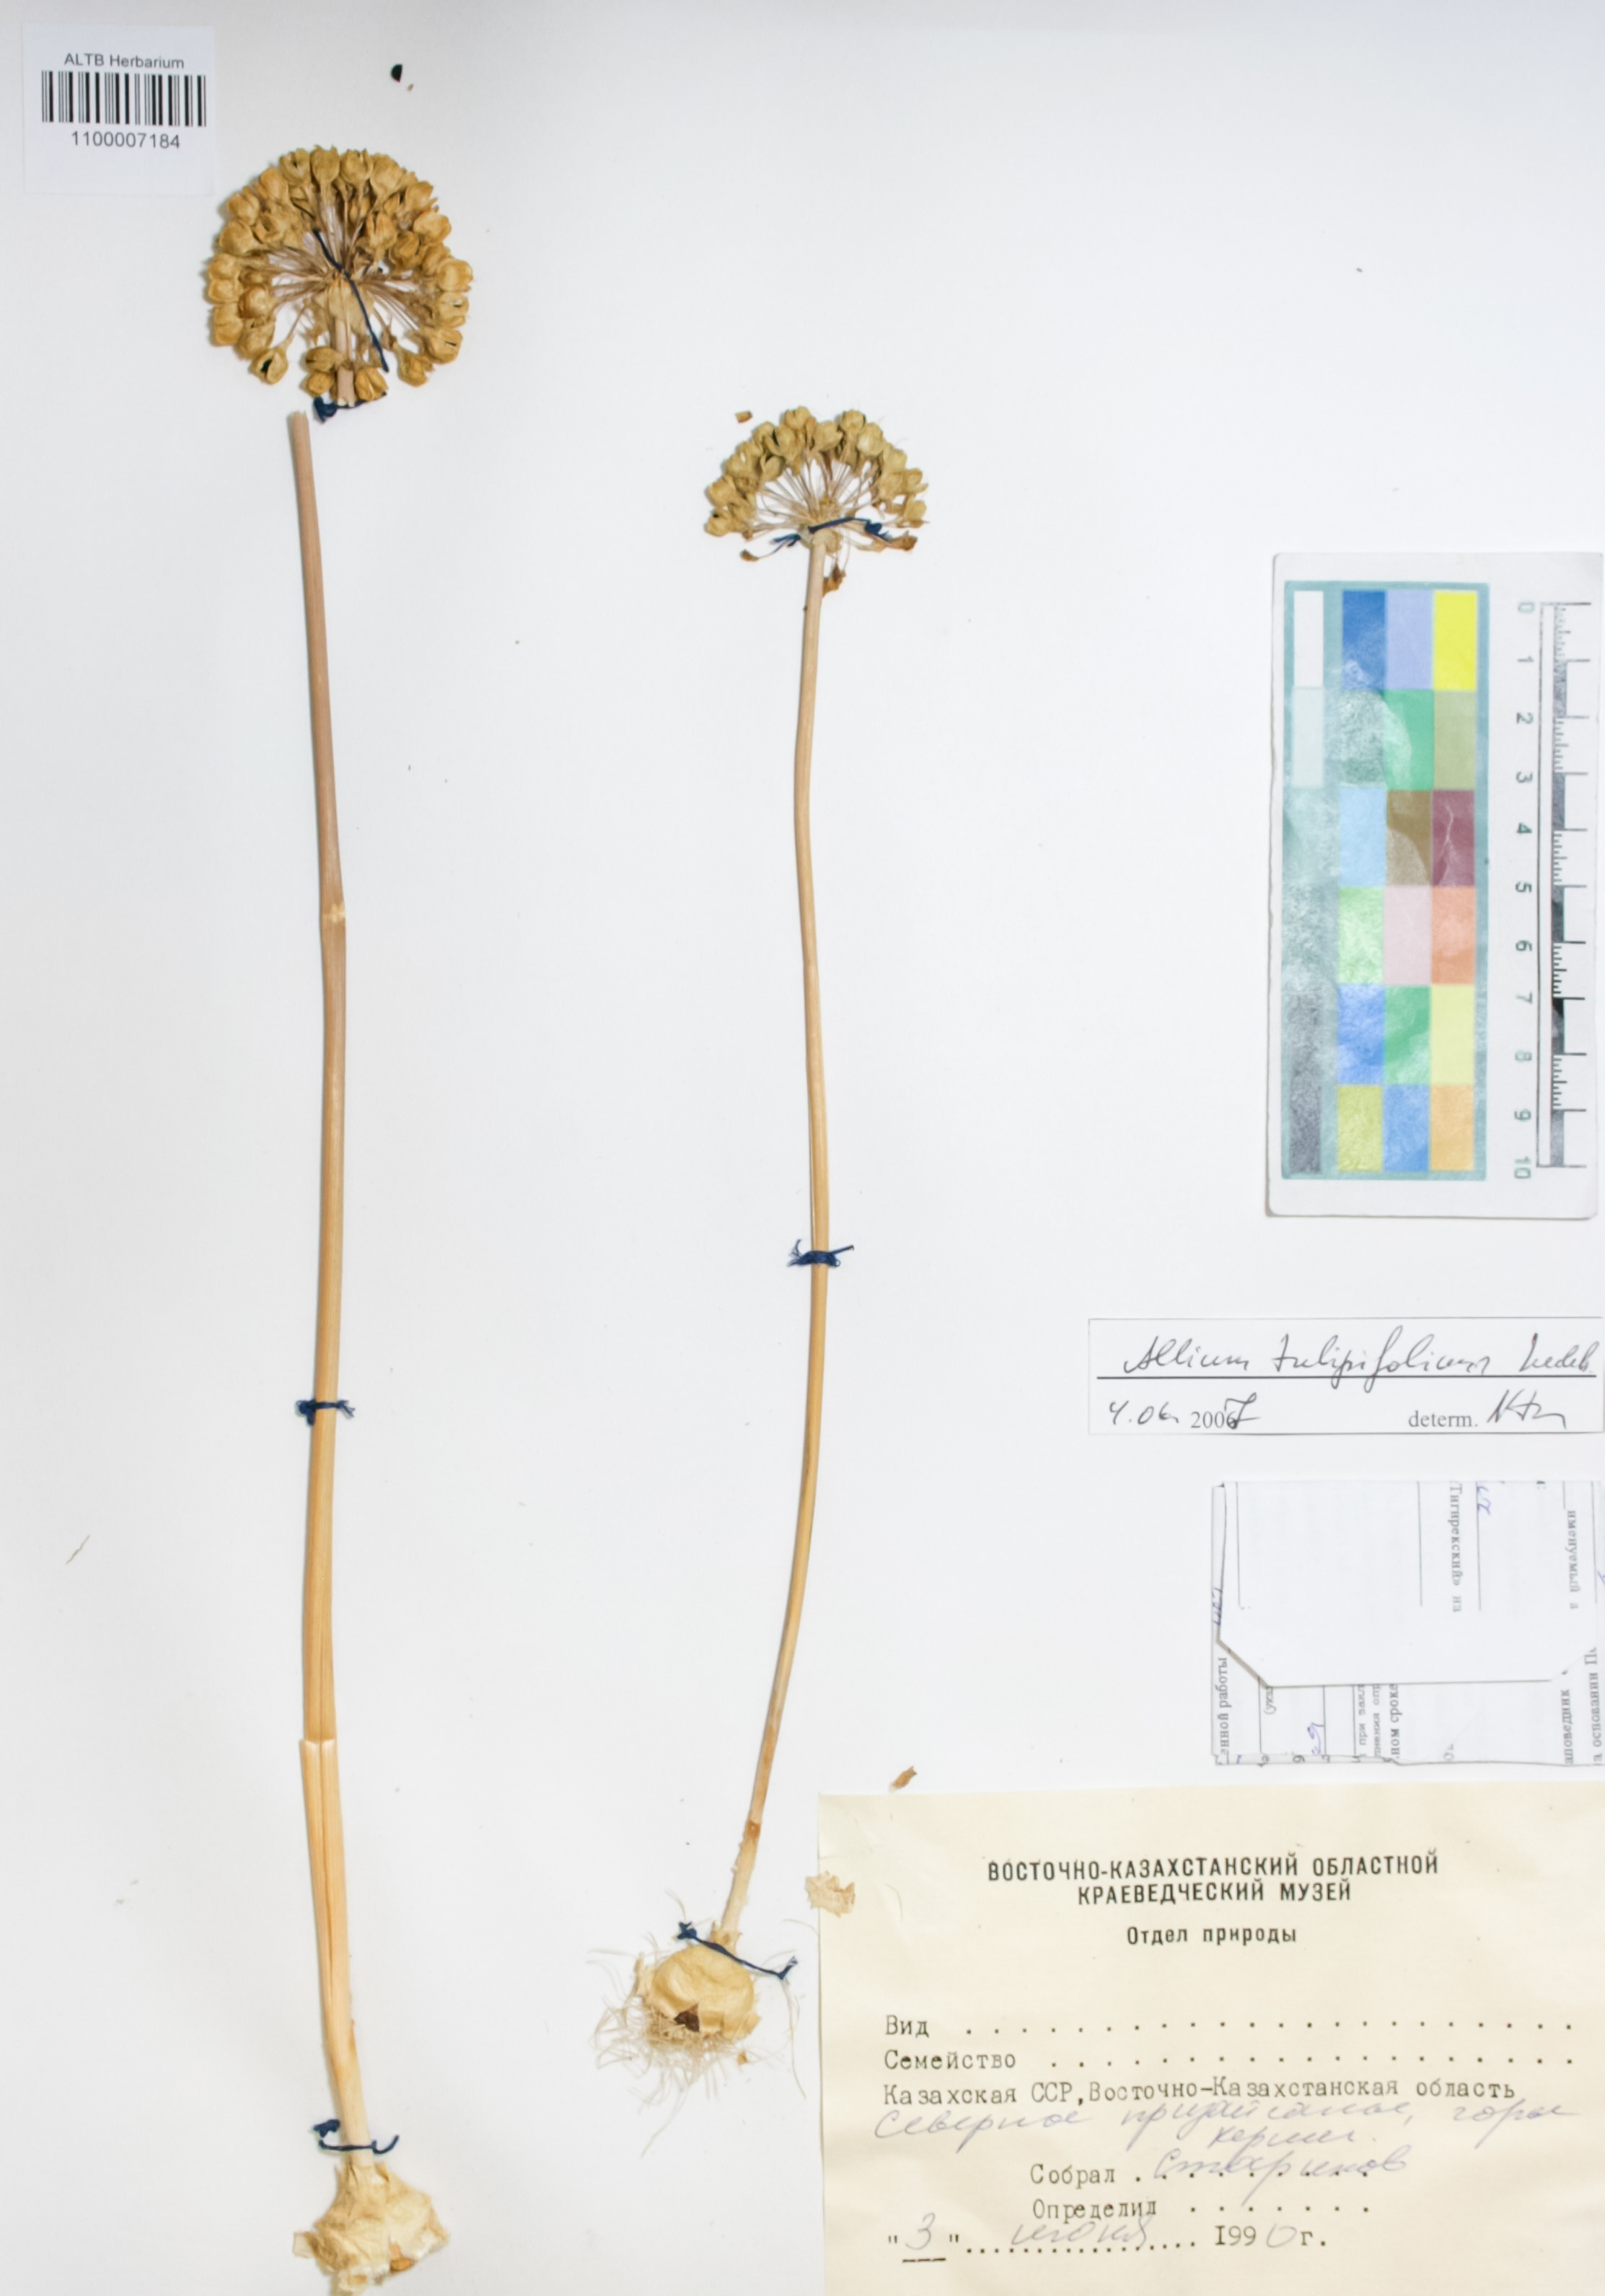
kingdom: Plantae
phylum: Tracheophyta
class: Liliopsida
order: Asparagales
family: Amaryllidaceae
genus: Allium
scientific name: Allium tulipifolium
